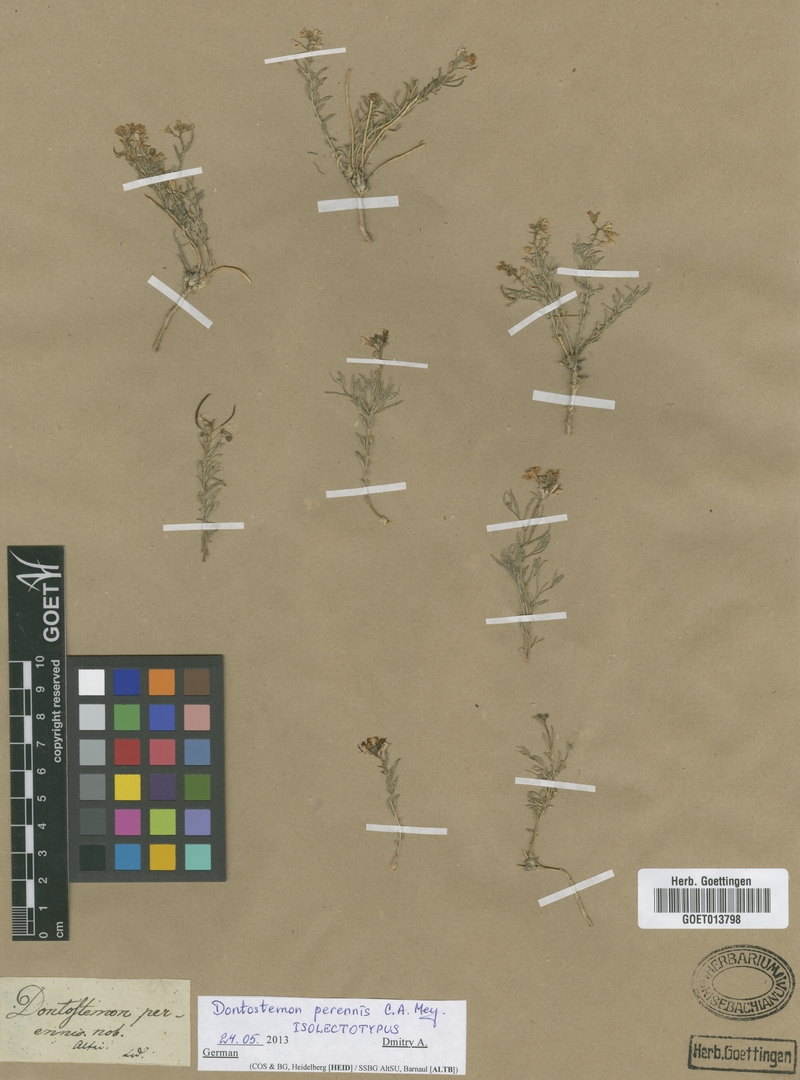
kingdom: Plantae
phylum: Tracheophyta
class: Magnoliopsida
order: Brassicales
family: Brassicaceae
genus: Dontostemon
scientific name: Dontostemon perennis
